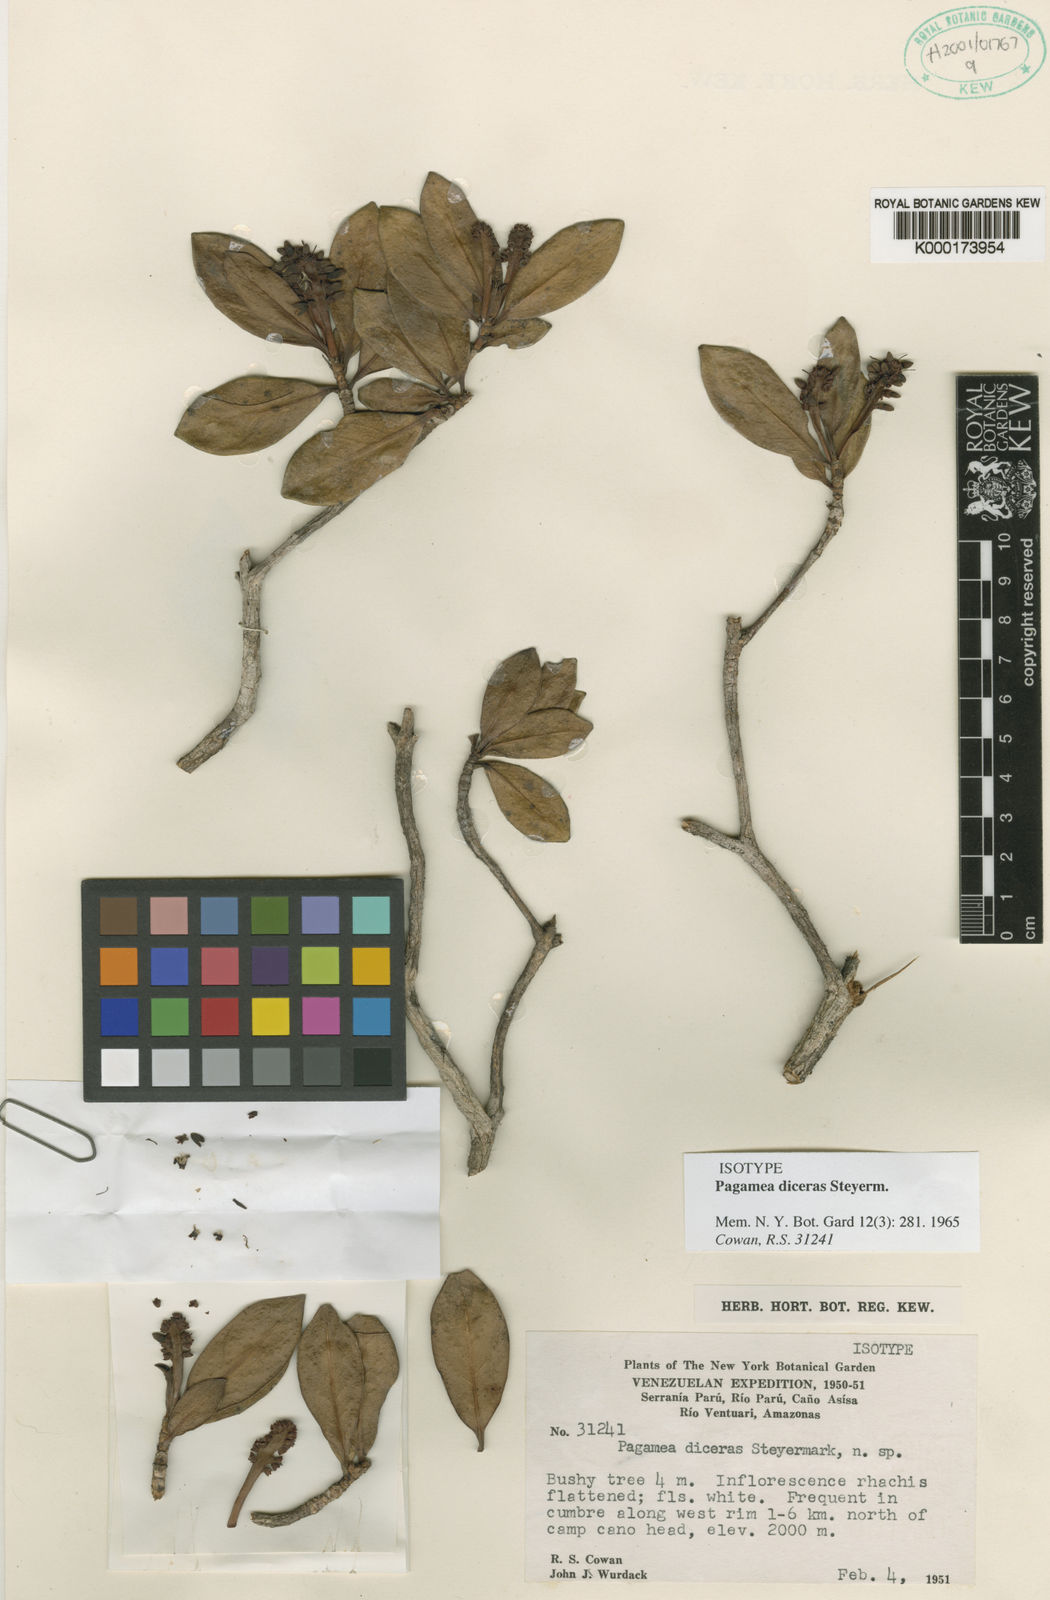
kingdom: Plantae
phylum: Tracheophyta
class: Magnoliopsida
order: Gentianales
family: Rubiaceae
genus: Pagamea
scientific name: Pagamea diceras
